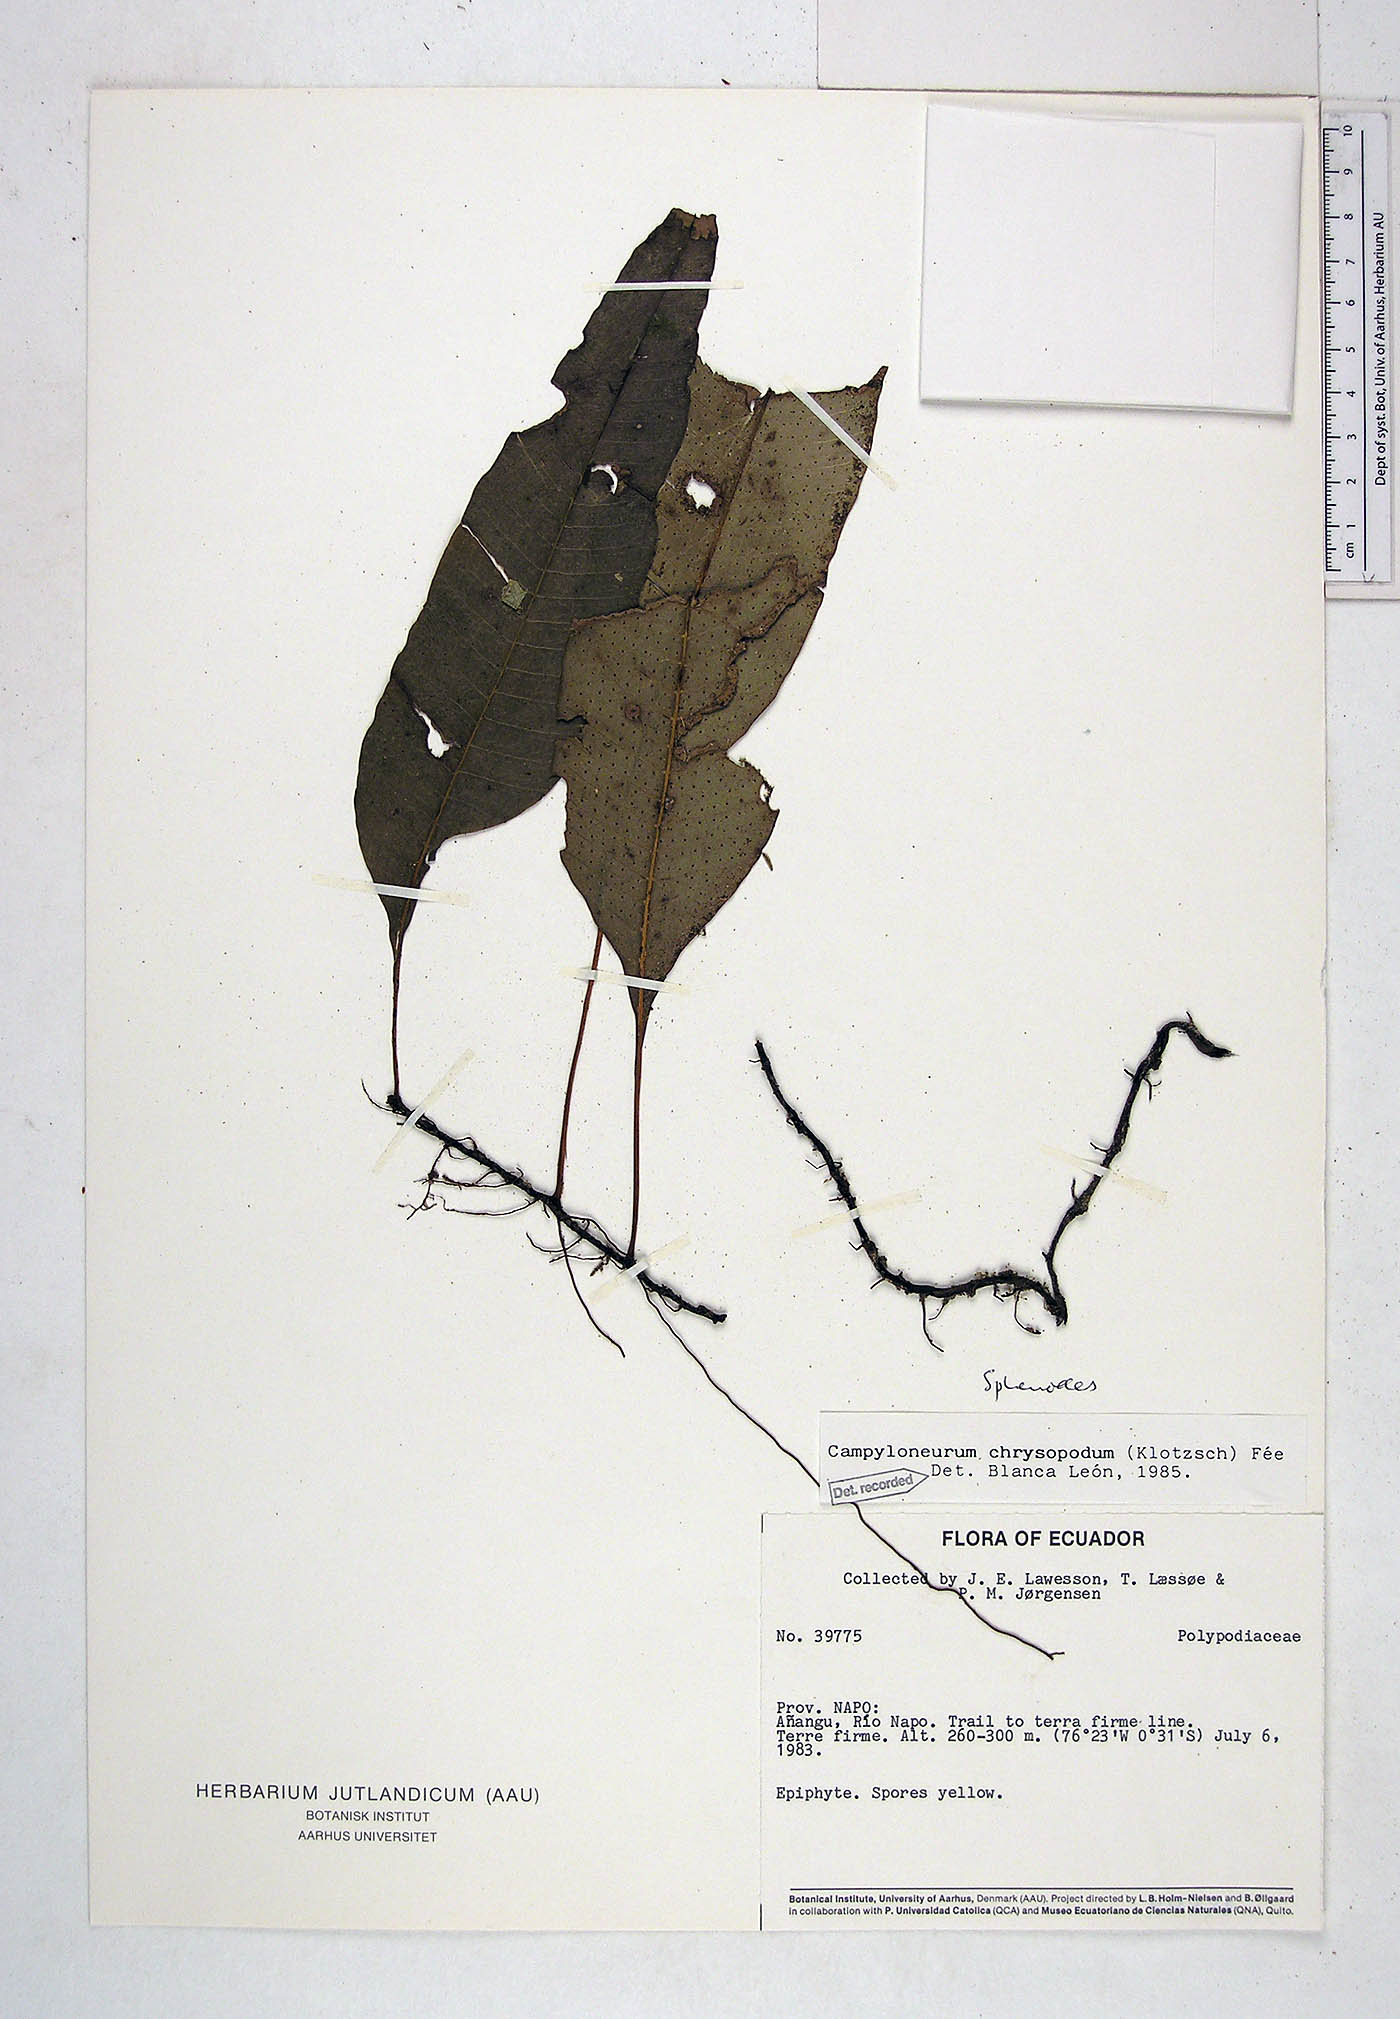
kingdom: Plantae
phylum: Tracheophyta
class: Polypodiopsida
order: Polypodiales
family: Polypodiaceae
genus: Campyloneurum
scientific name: Campyloneurum atrosquamatum
